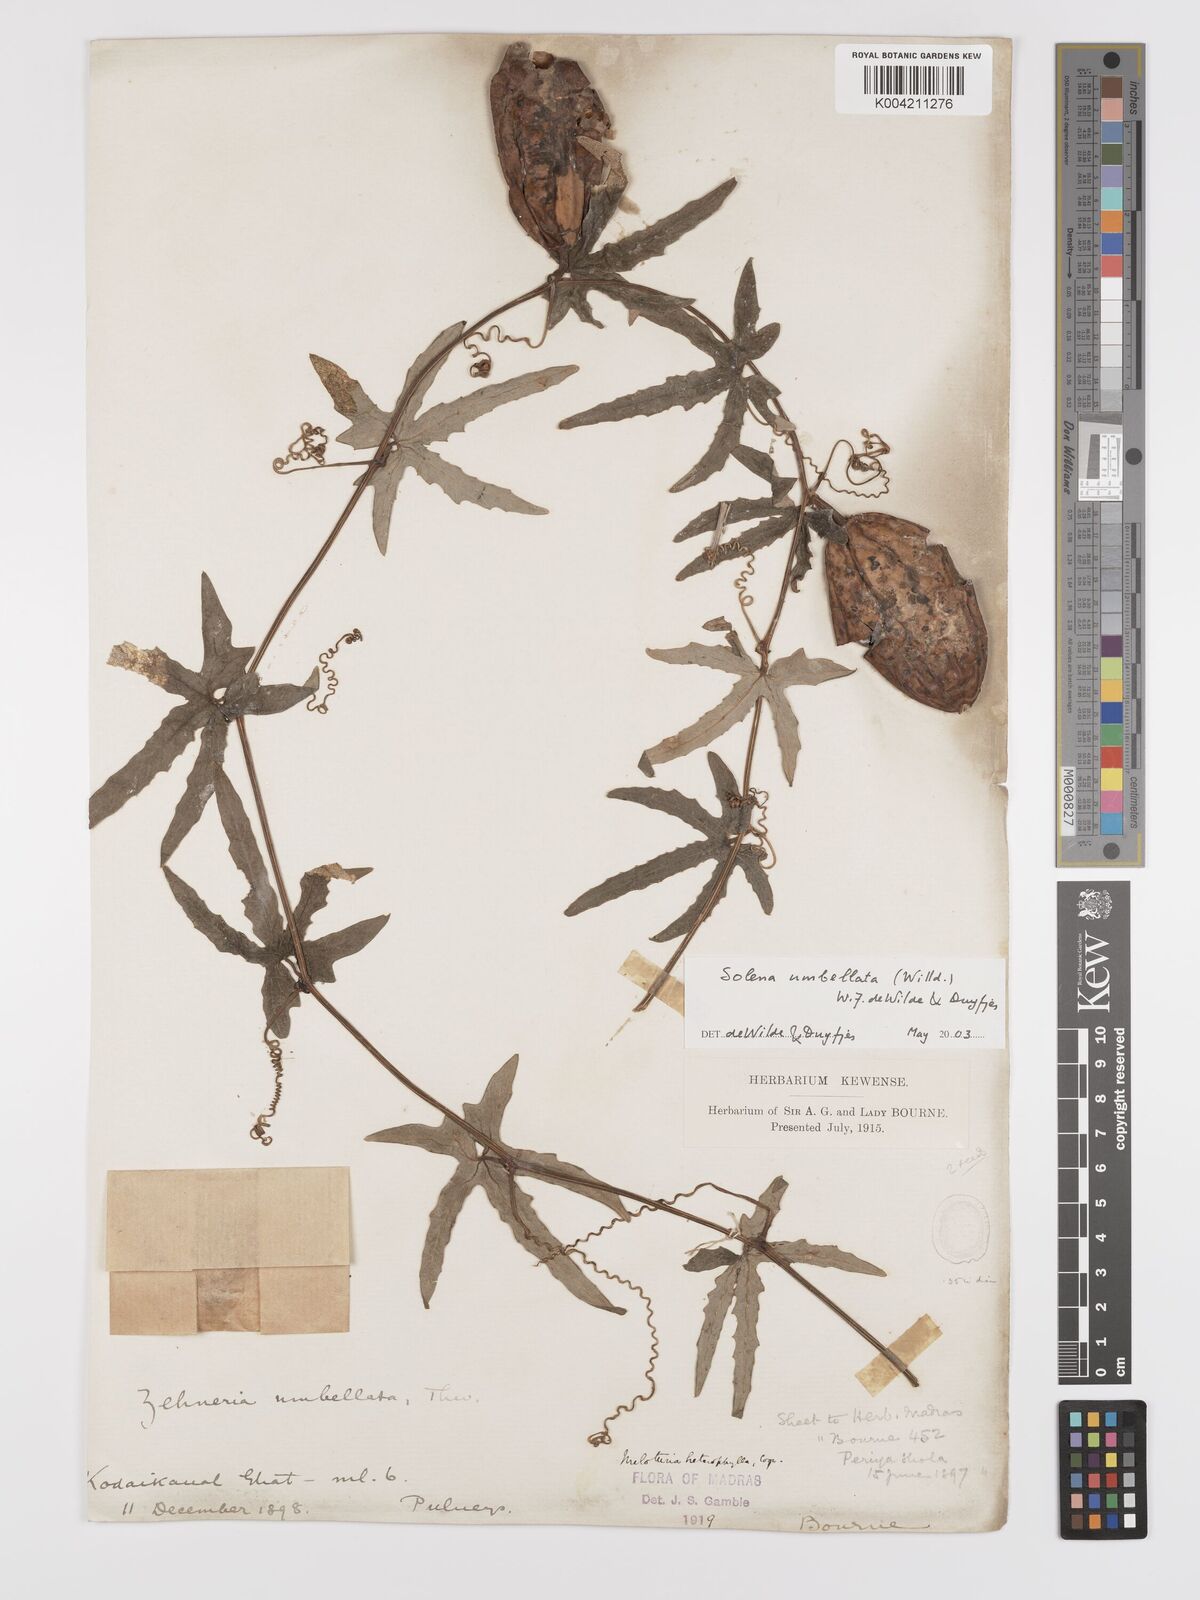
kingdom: Plantae
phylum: Tracheophyta
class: Magnoliopsida
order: Cucurbitales
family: Cucurbitaceae
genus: Solena
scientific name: Solena amplexicaulis
